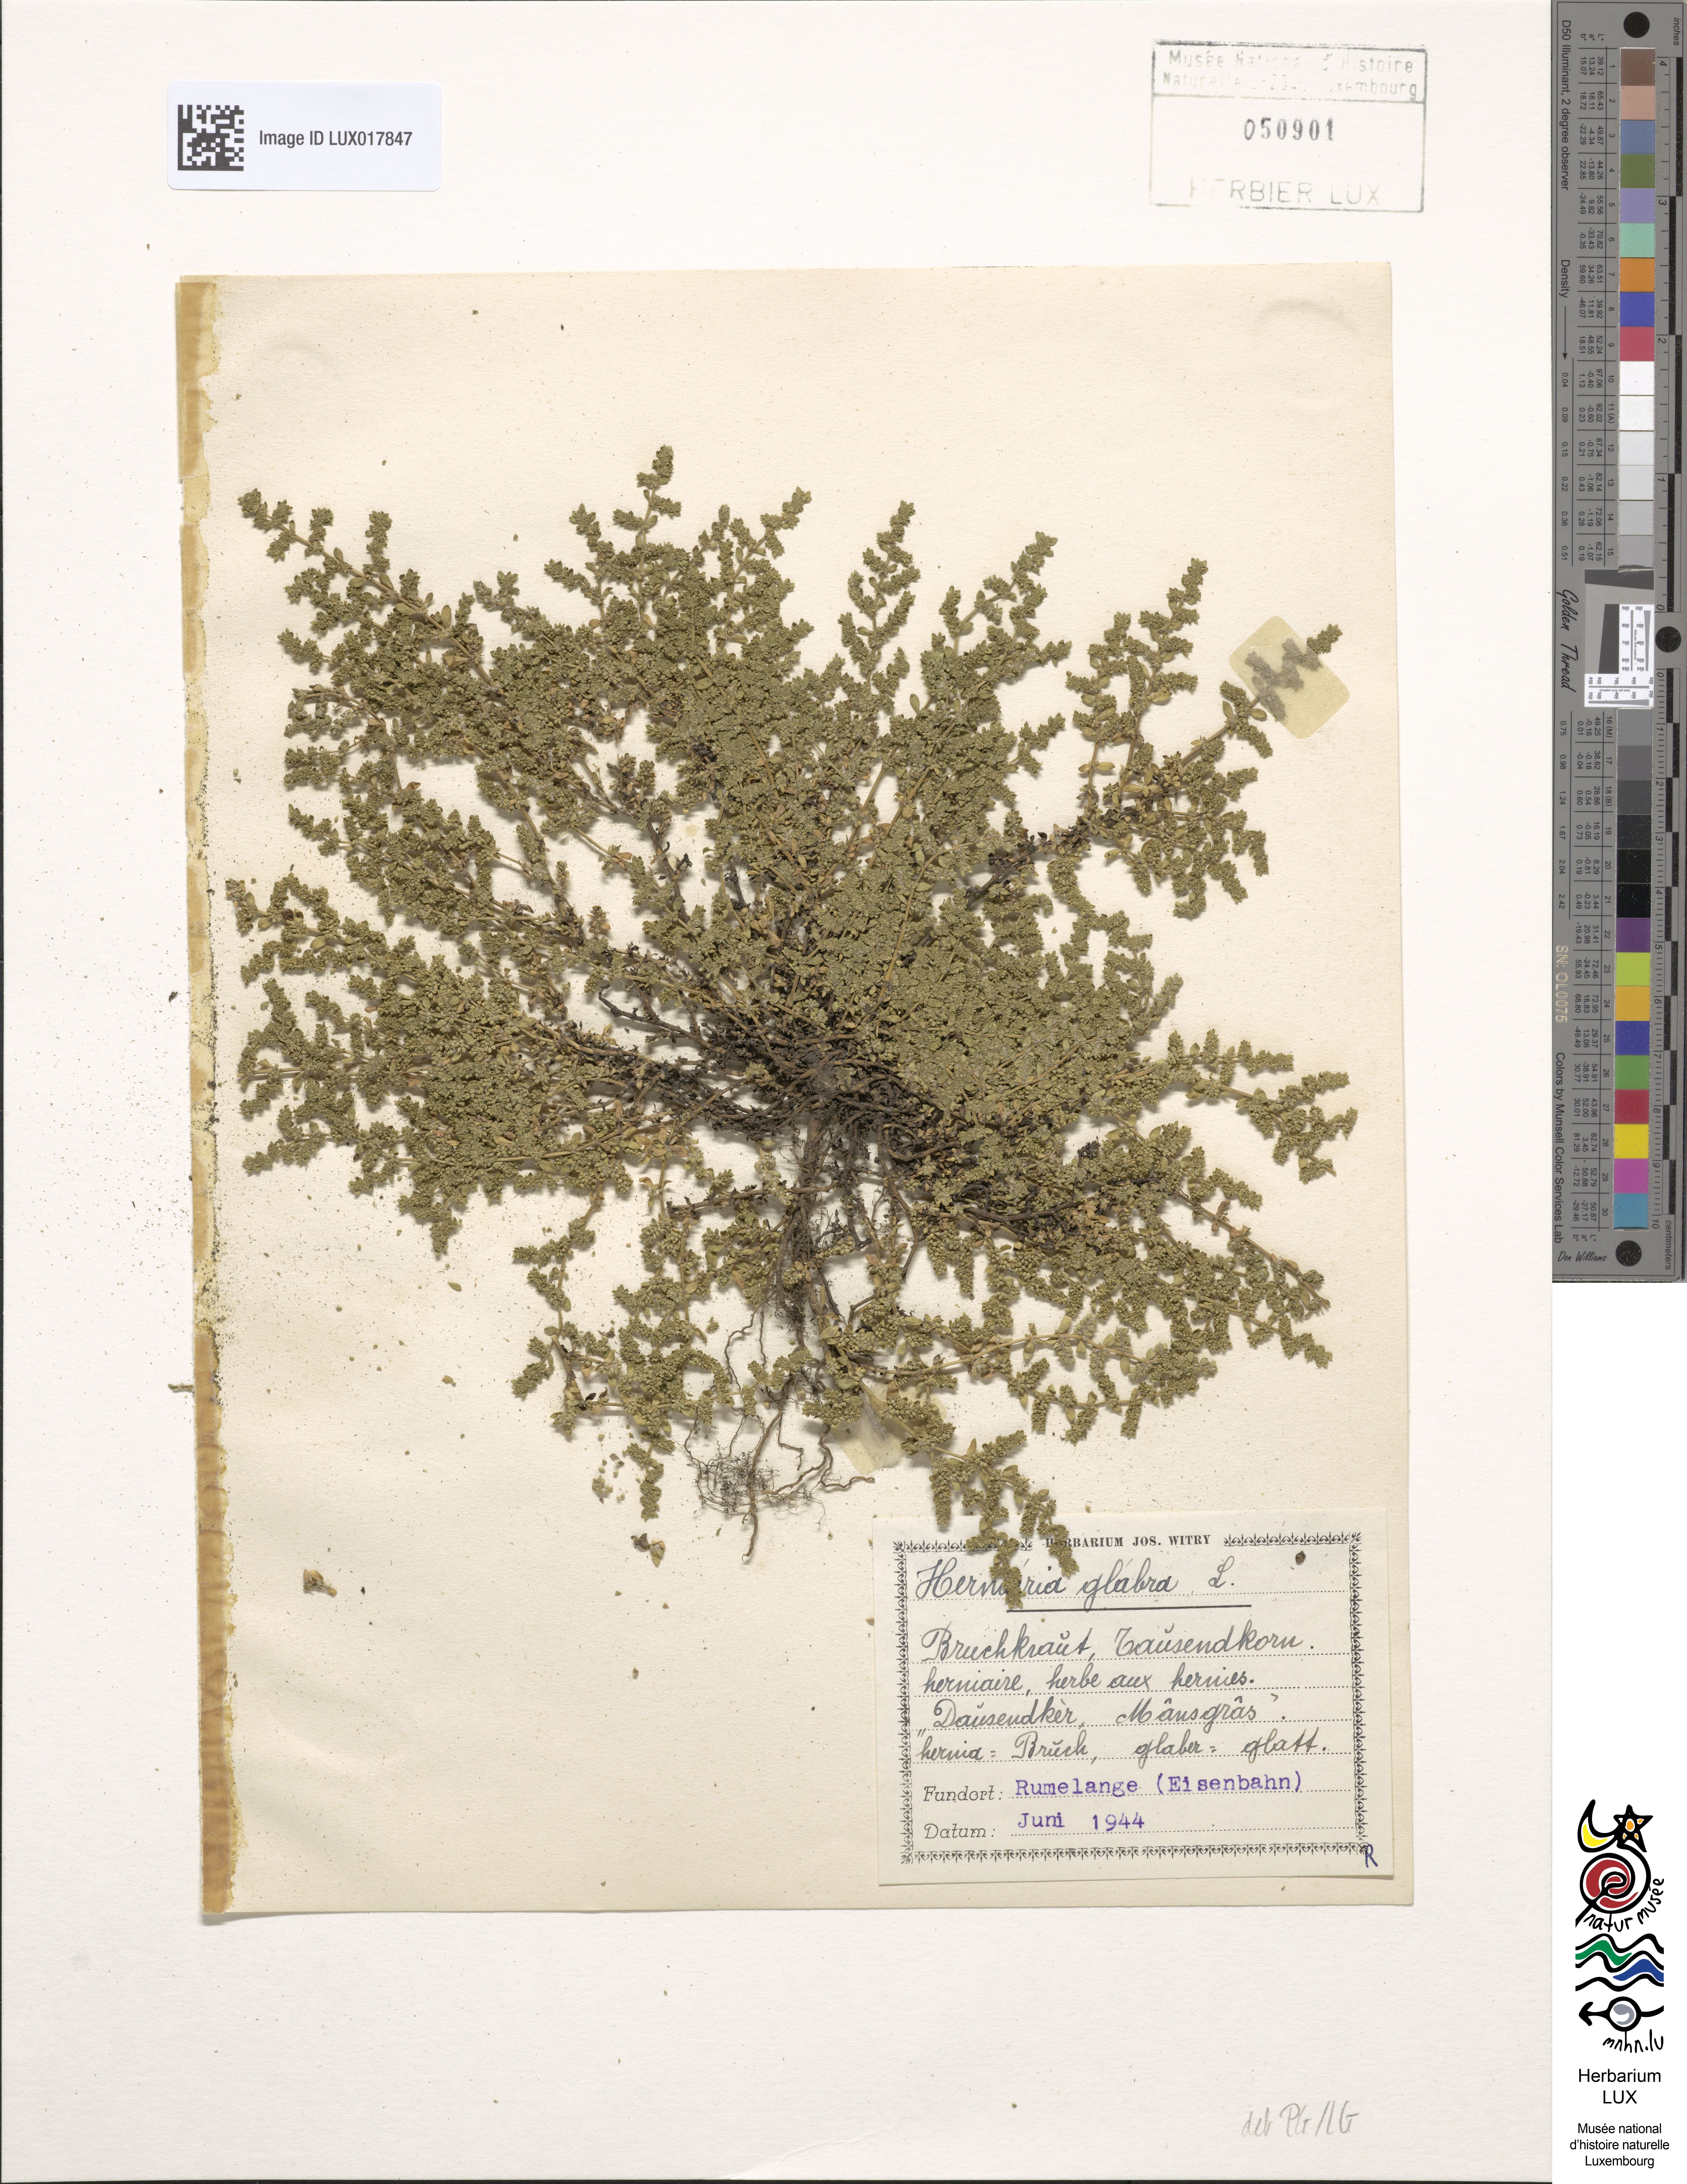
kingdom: Plantae
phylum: Tracheophyta
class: Magnoliopsida
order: Caryophyllales
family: Caryophyllaceae
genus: Herniaria
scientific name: Herniaria glabra
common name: Smooth rupturewort
